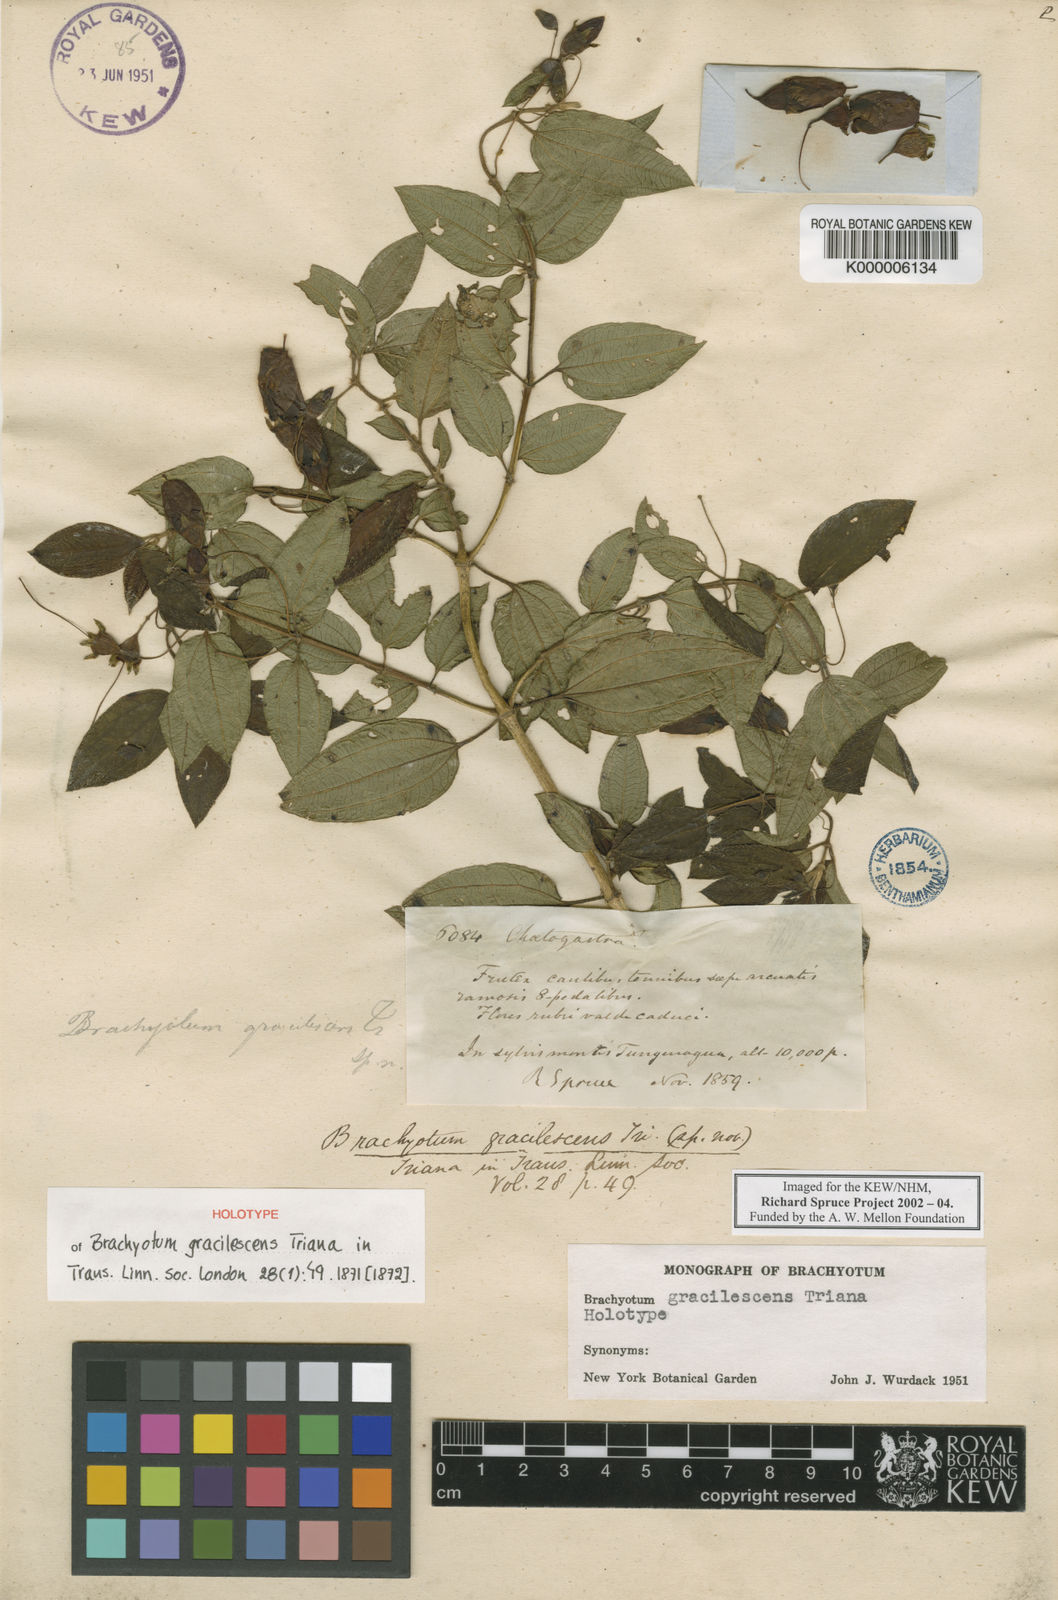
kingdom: Plantae
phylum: Tracheophyta
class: Magnoliopsida
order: Myrtales
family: Melastomataceae
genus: Brachyotum
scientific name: Brachyotum gracilescens
